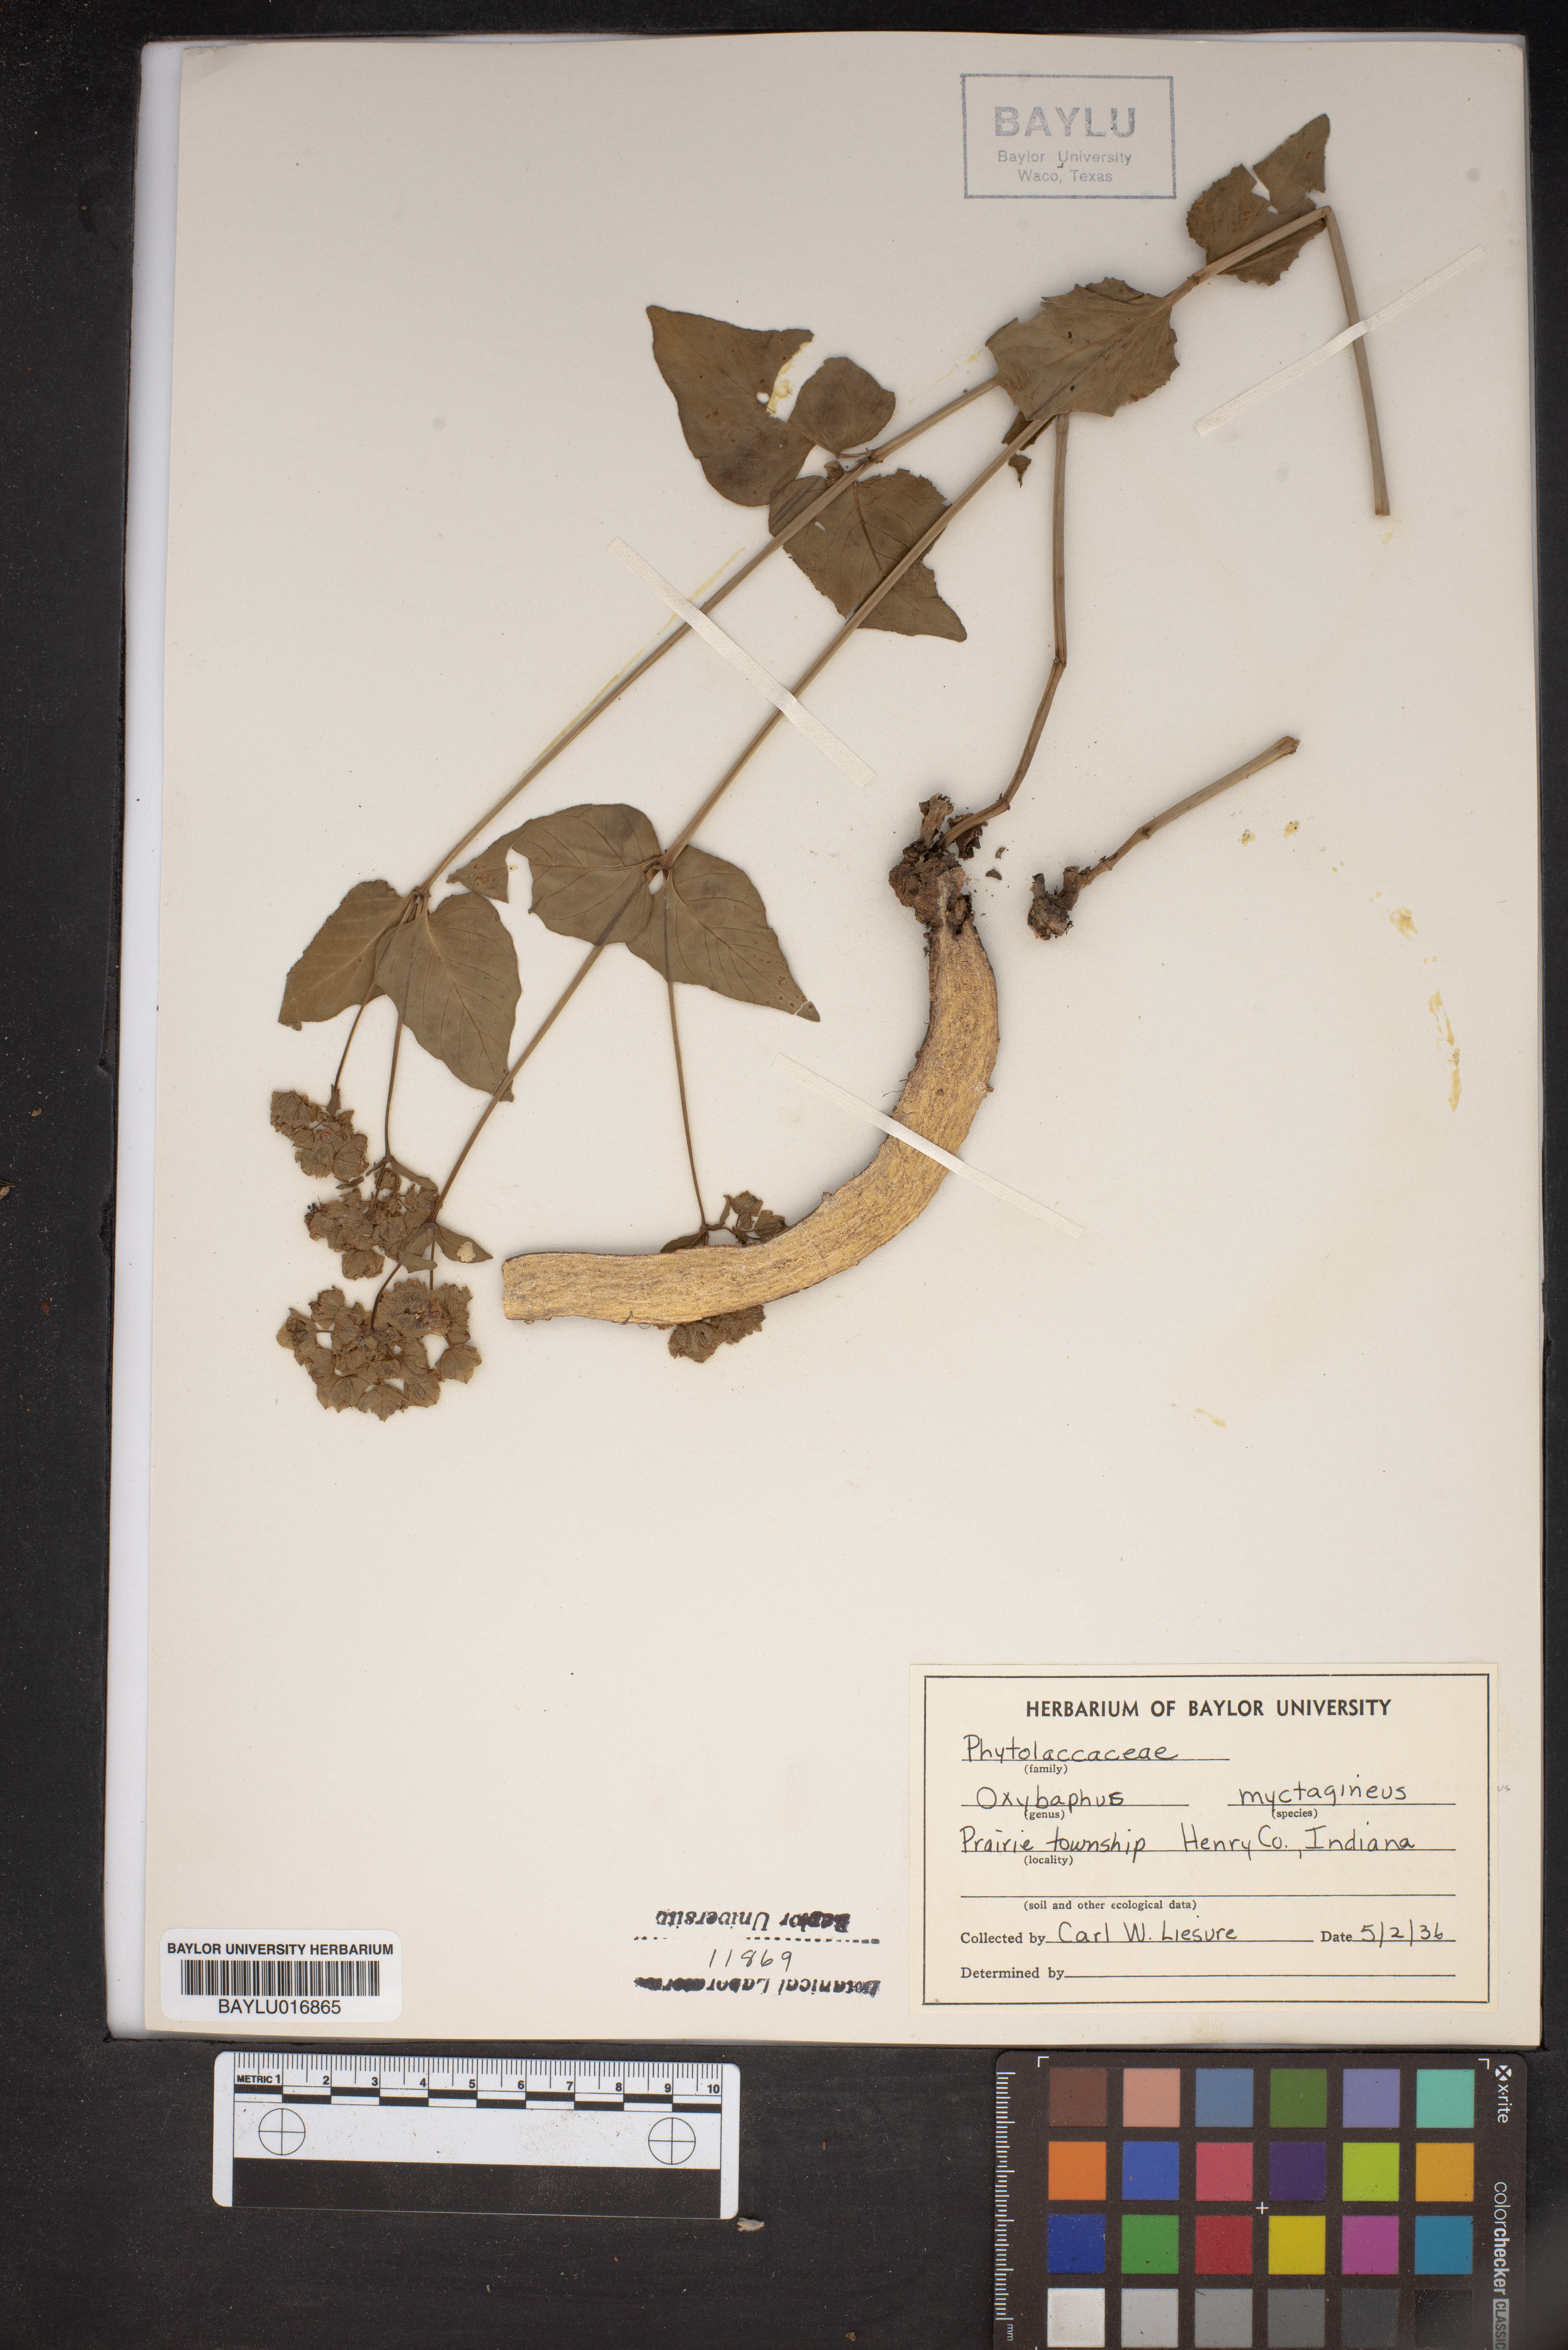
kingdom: Plantae
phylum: Tracheophyta
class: Magnoliopsida
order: Caryophyllales
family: Nyctaginaceae
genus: Mirabilis
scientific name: Mirabilis nyctaginea
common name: Umbrella wort
